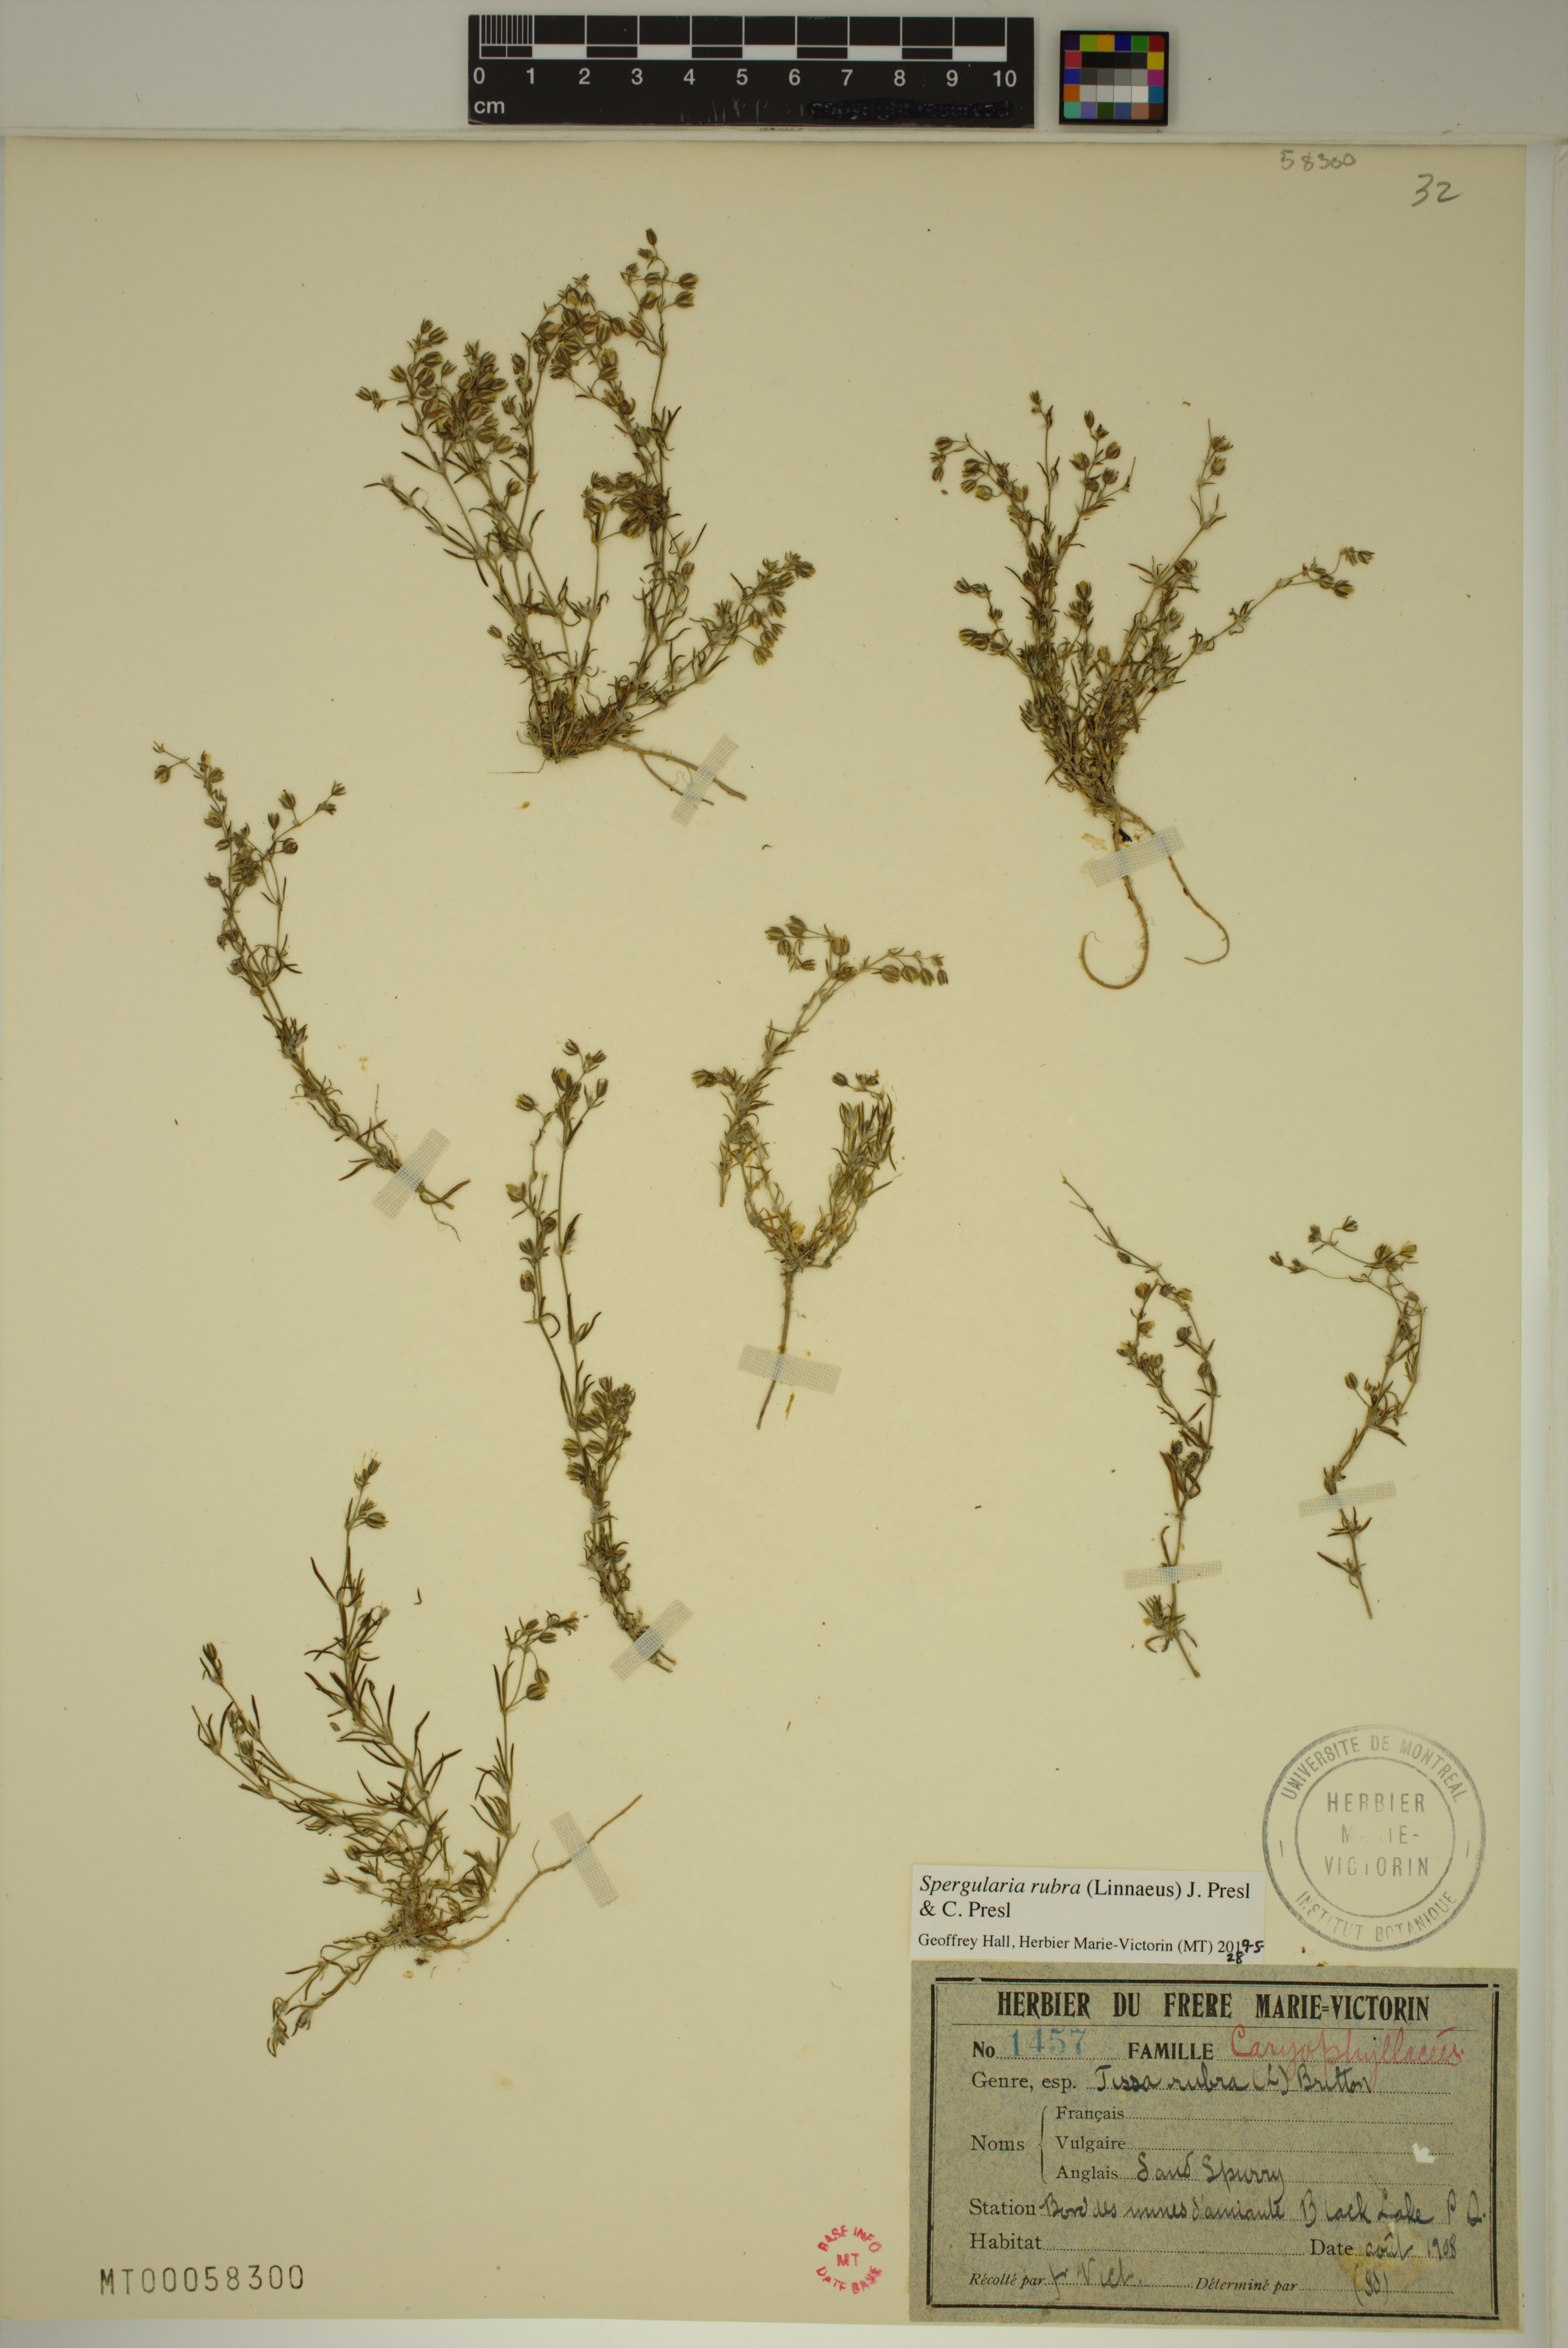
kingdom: Plantae
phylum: Tracheophyta
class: Magnoliopsida
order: Caryophyllales
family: Caryophyllaceae
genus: Spergularia
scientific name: Spergularia rubra
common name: Red sand-spurrey
